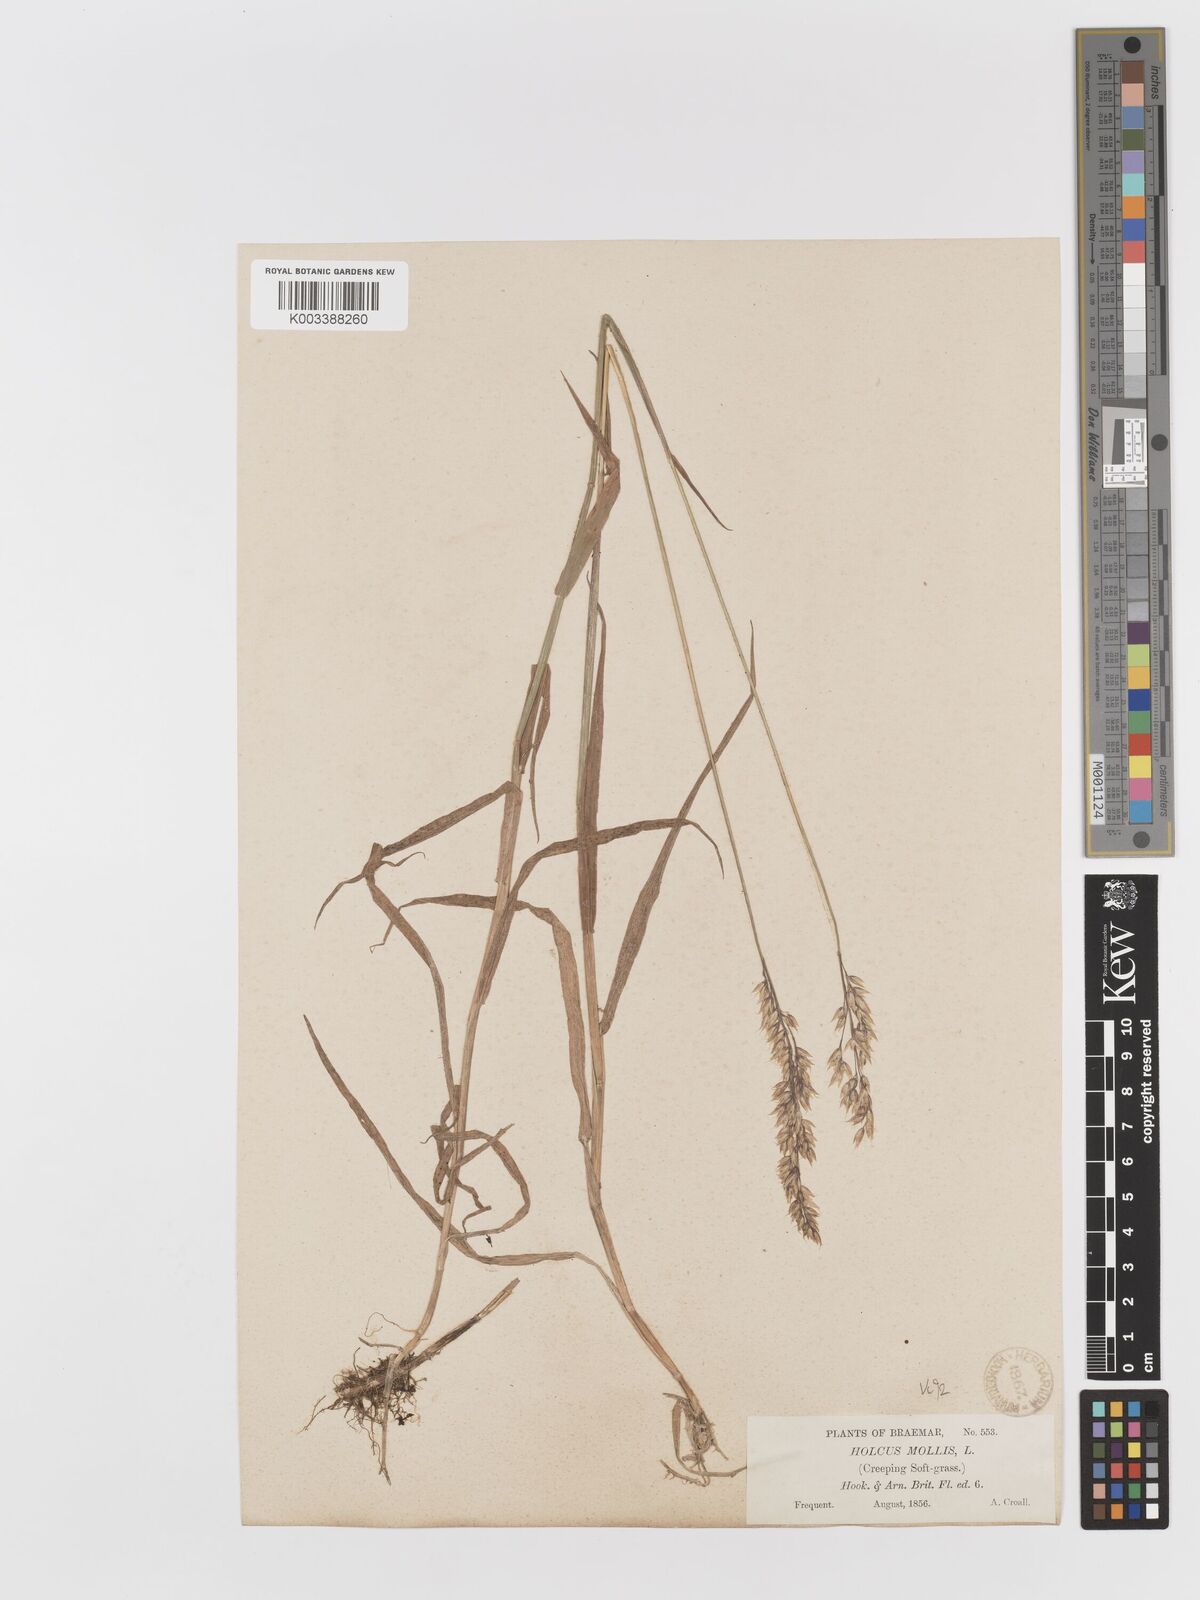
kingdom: Plantae
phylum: Tracheophyta
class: Liliopsida
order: Poales
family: Poaceae
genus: Holcus
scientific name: Holcus mollis
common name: Creeping velvetgrass
